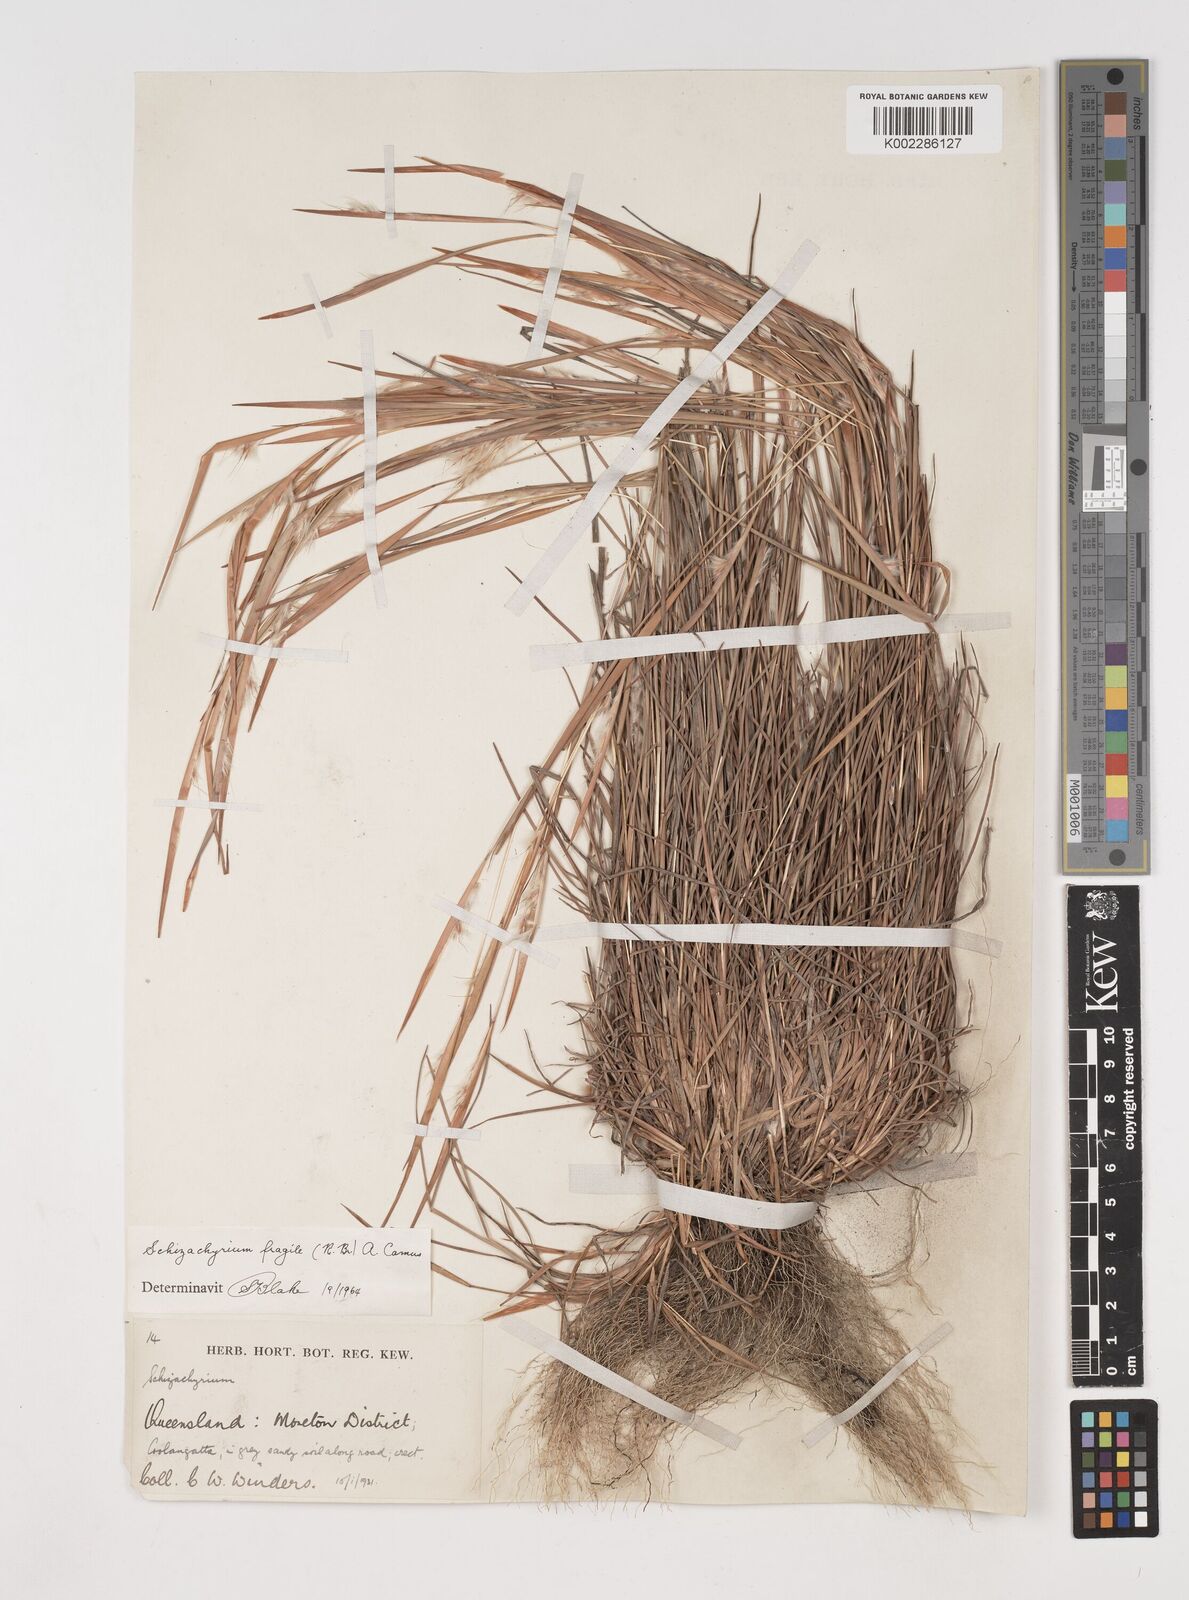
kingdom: Plantae
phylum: Tracheophyta
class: Liliopsida
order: Poales
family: Poaceae
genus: Schizachyrium
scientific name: Schizachyrium fragile
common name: Red spathe grass
